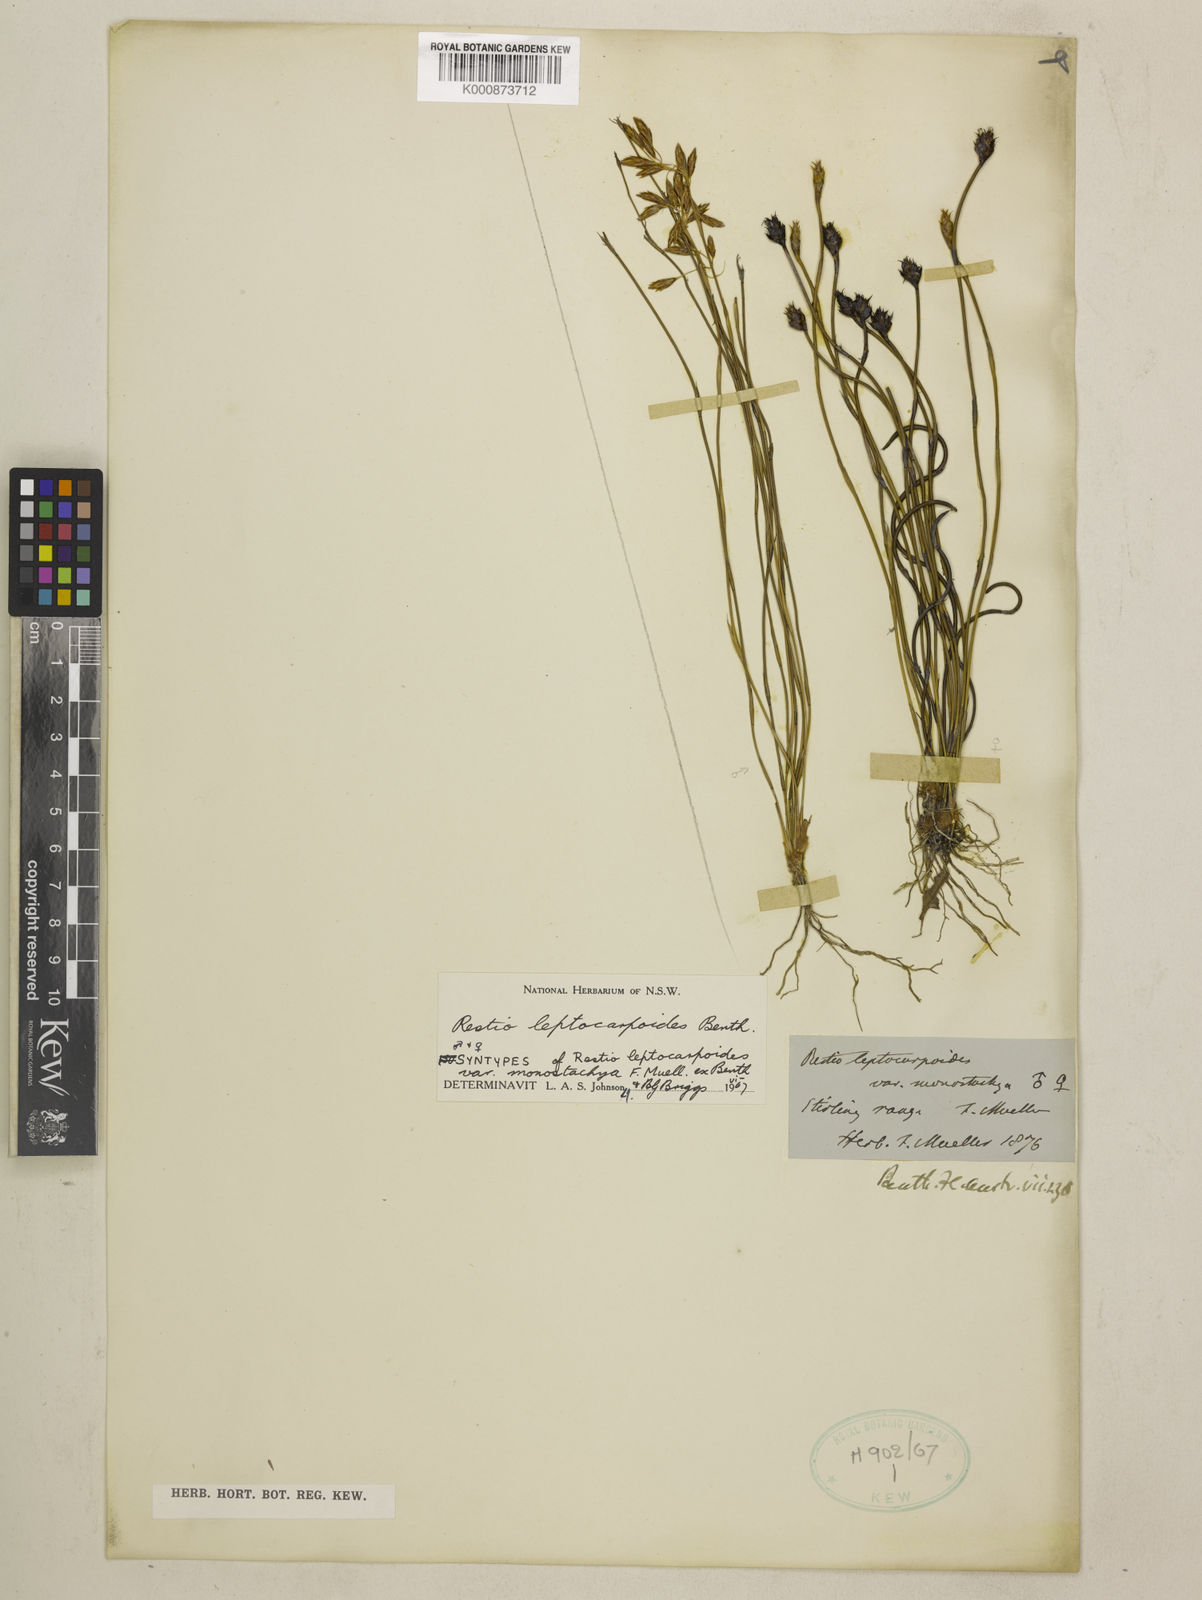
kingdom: Plantae
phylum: Tracheophyta
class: Liliopsida
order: Poales
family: Restionaceae
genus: Cytogonidium
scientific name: Cytogonidium leptocarpoides
